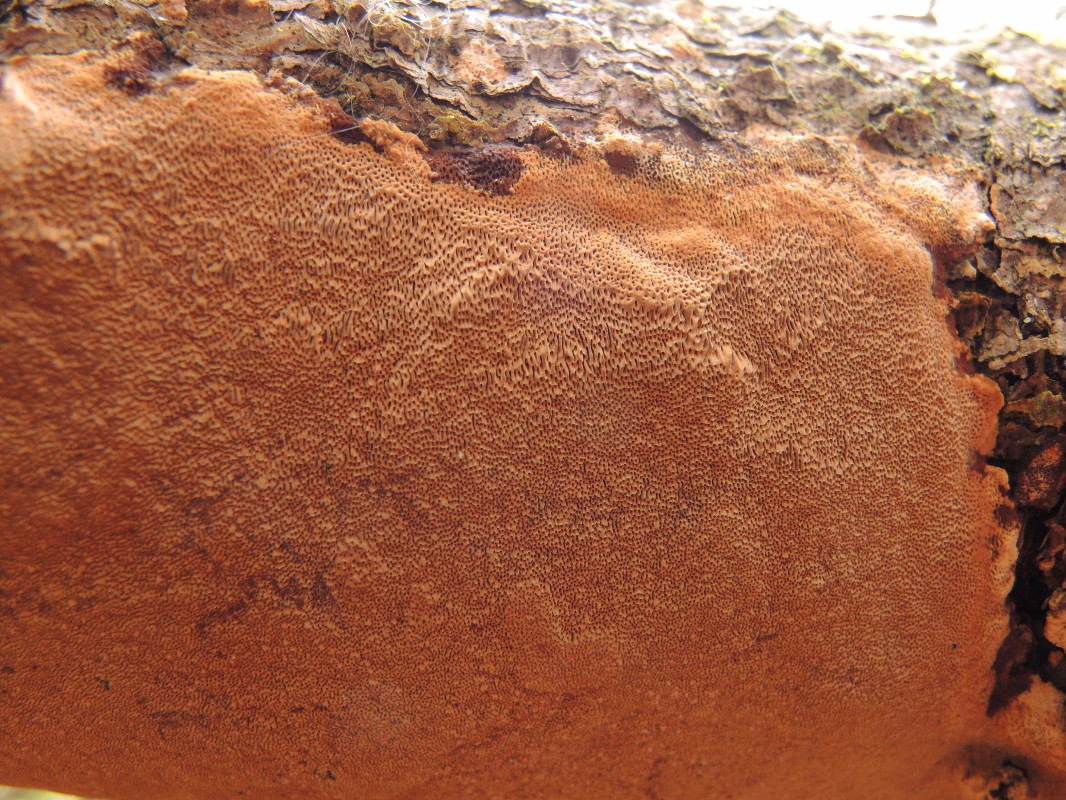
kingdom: Fungi
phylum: Basidiomycota
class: Agaricomycetes
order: Hymenochaetales
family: Hymenochaetaceae
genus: Fuscoporia
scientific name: Fuscoporia ferrea
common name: skorpe-ildporesvamp
